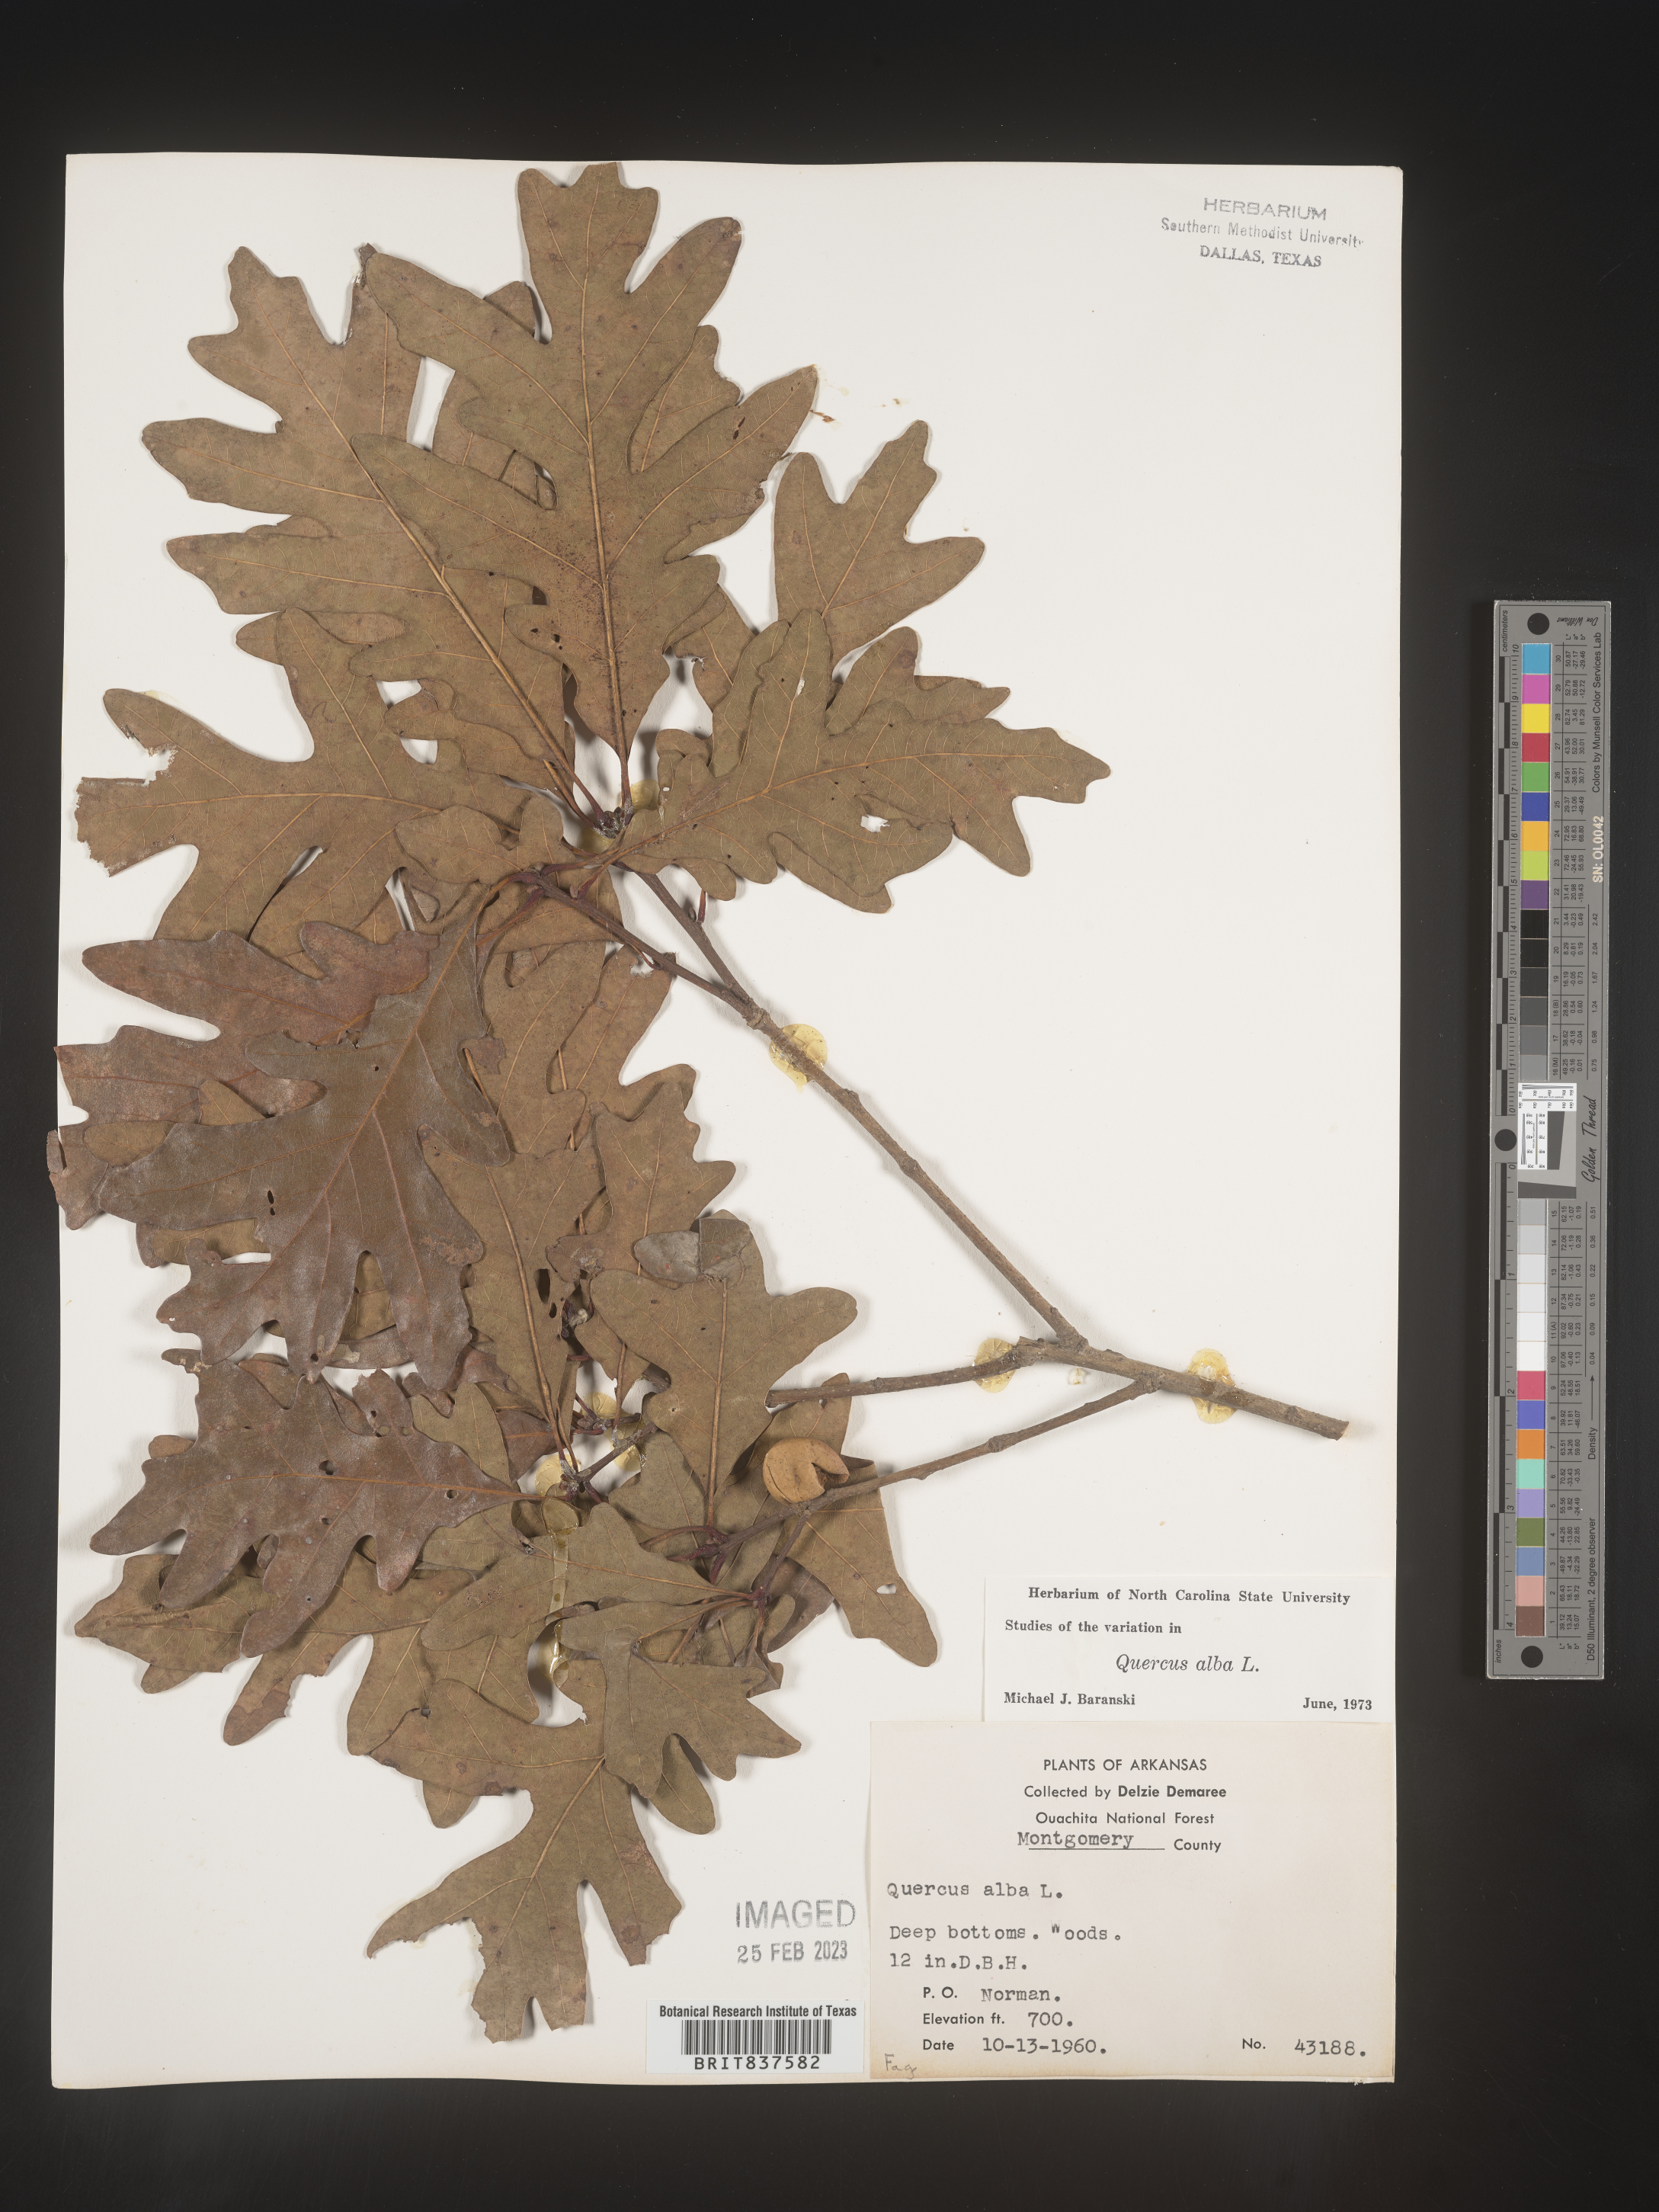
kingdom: Plantae
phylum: Tracheophyta
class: Magnoliopsida
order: Fagales
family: Fagaceae
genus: Quercus
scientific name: Quercus alba
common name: White oak
